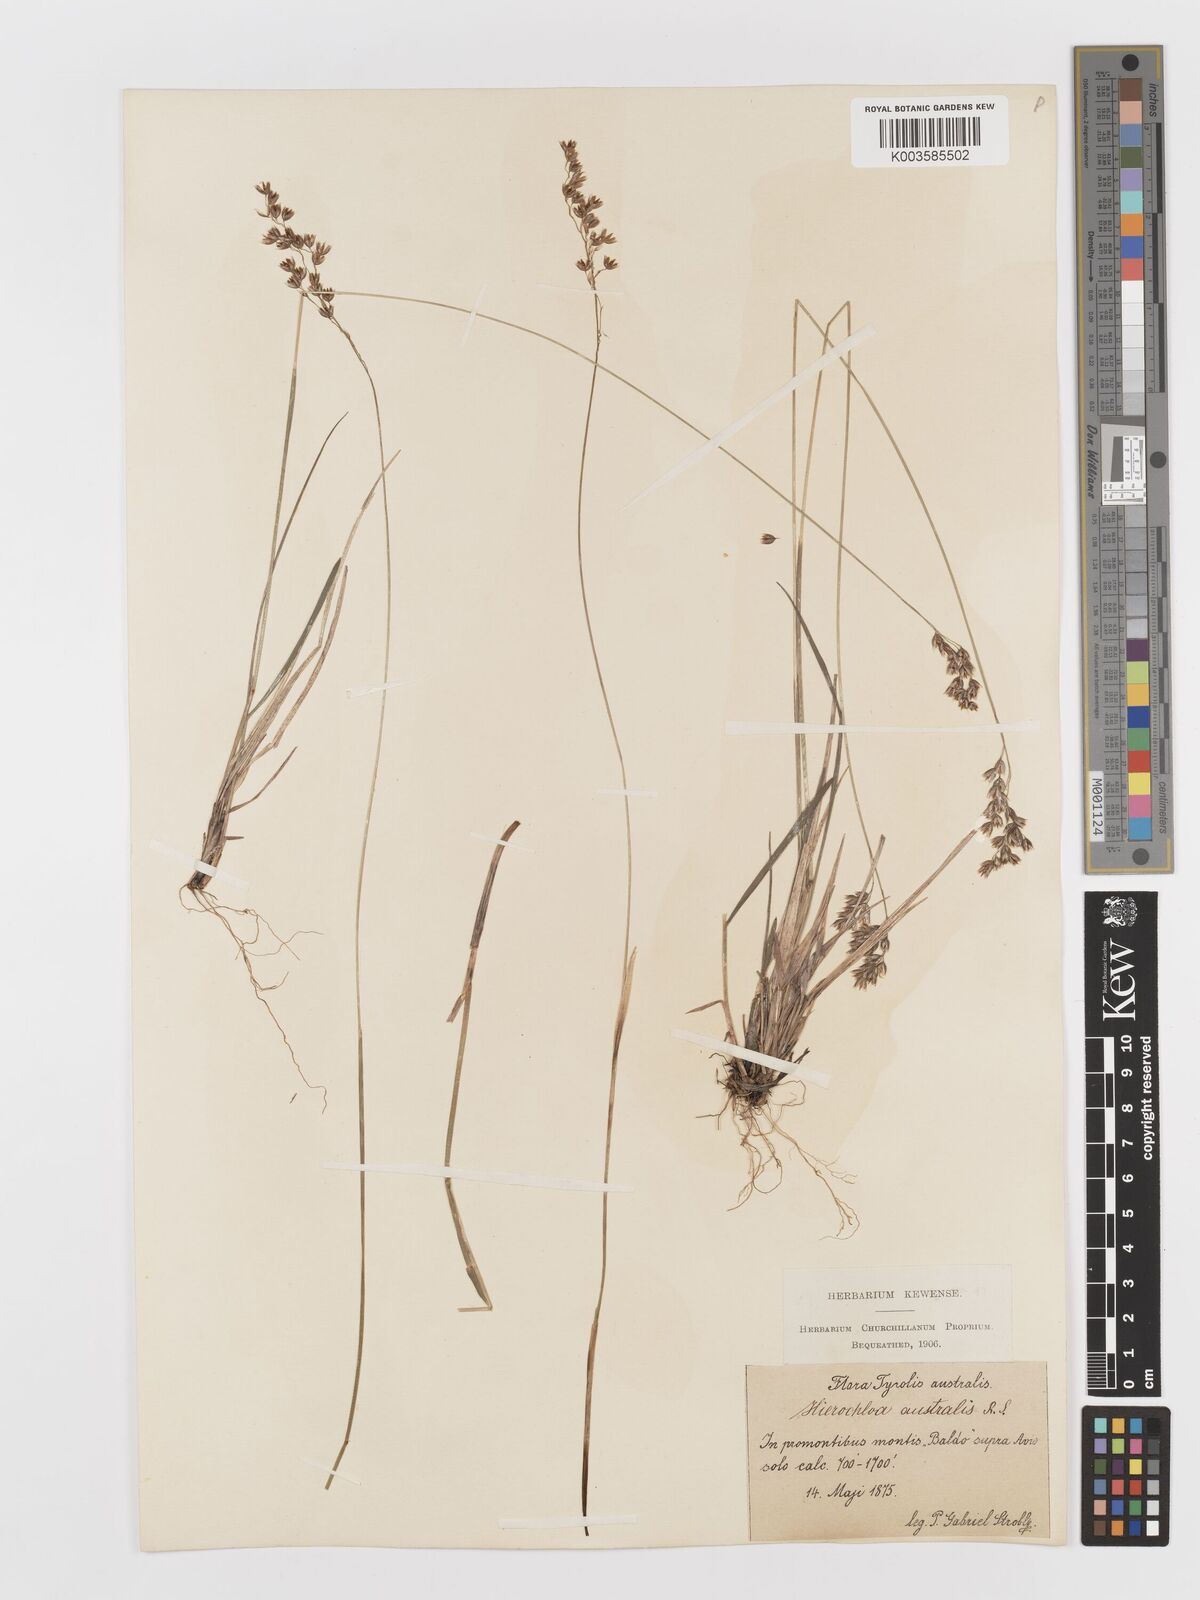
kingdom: Plantae
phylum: Tracheophyta
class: Liliopsida
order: Poales
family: Poaceae
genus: Anthoxanthum
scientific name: Anthoxanthum australe
